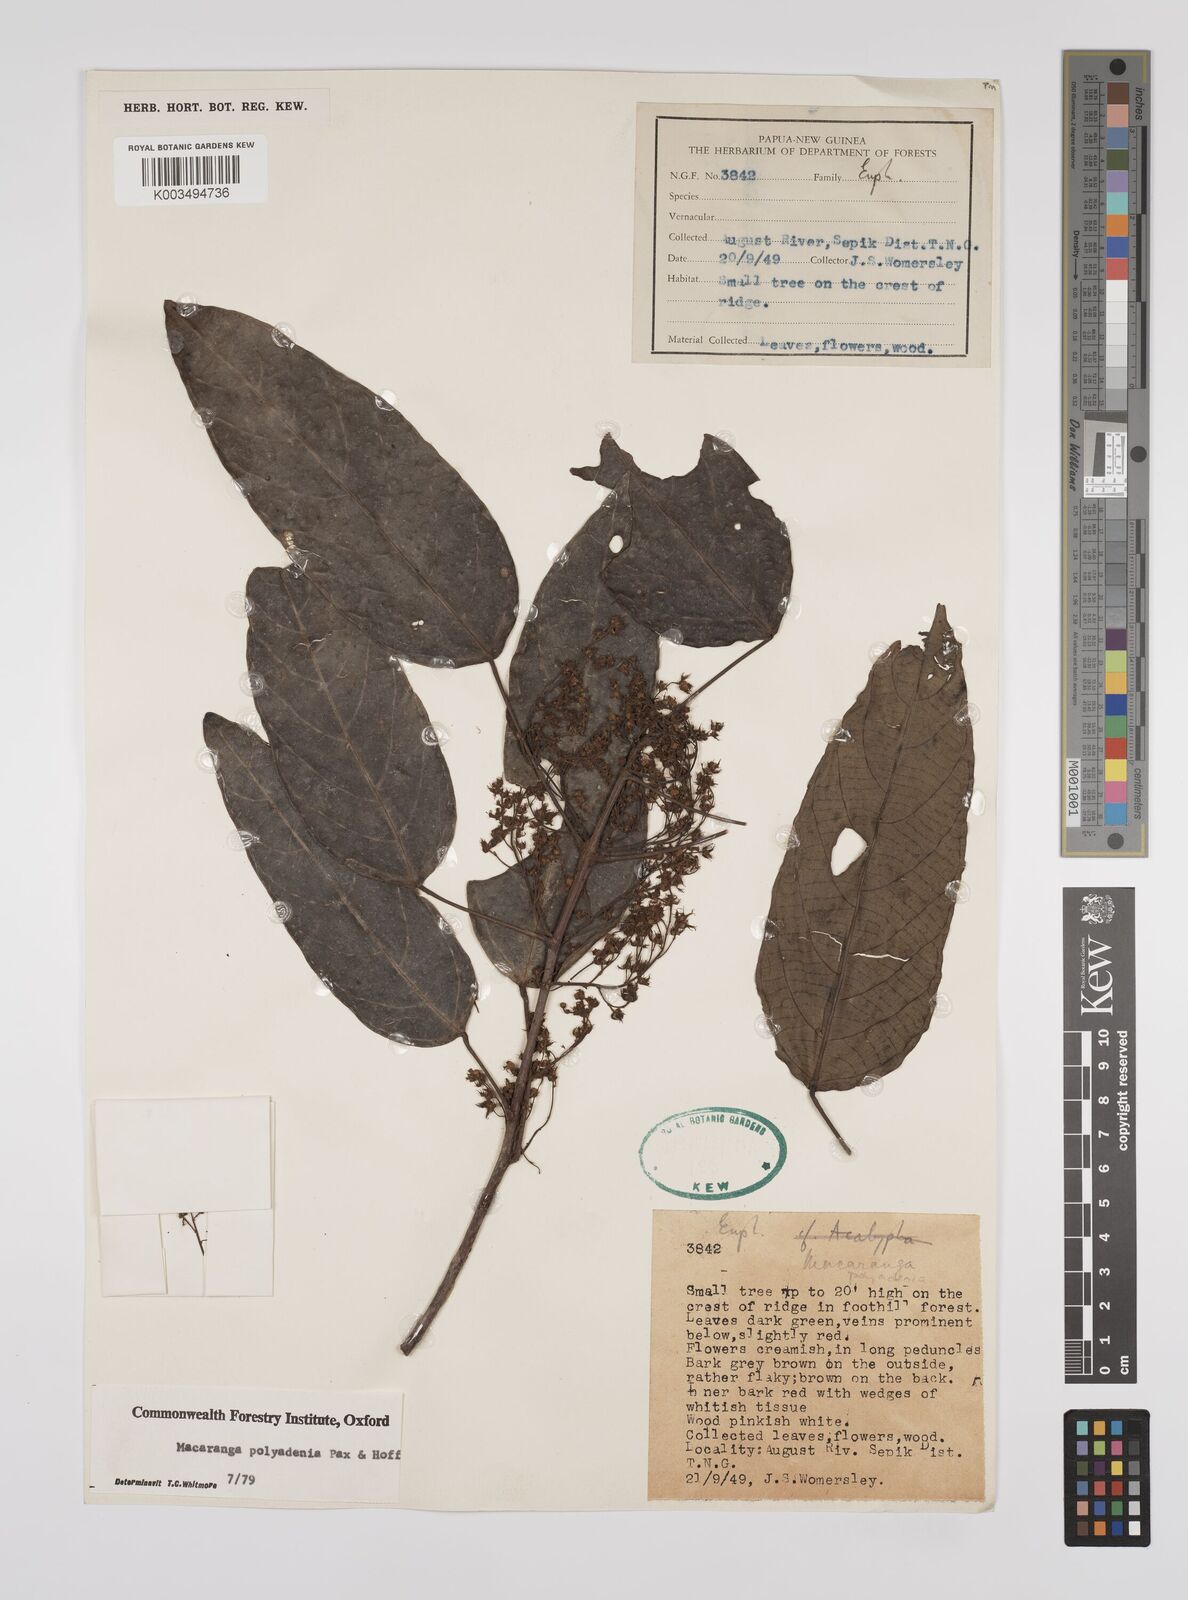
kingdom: Plantae
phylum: Tracheophyta
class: Magnoliopsida
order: Malpighiales
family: Euphorbiaceae
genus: Macaranga
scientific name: Macaranga polyadenia
